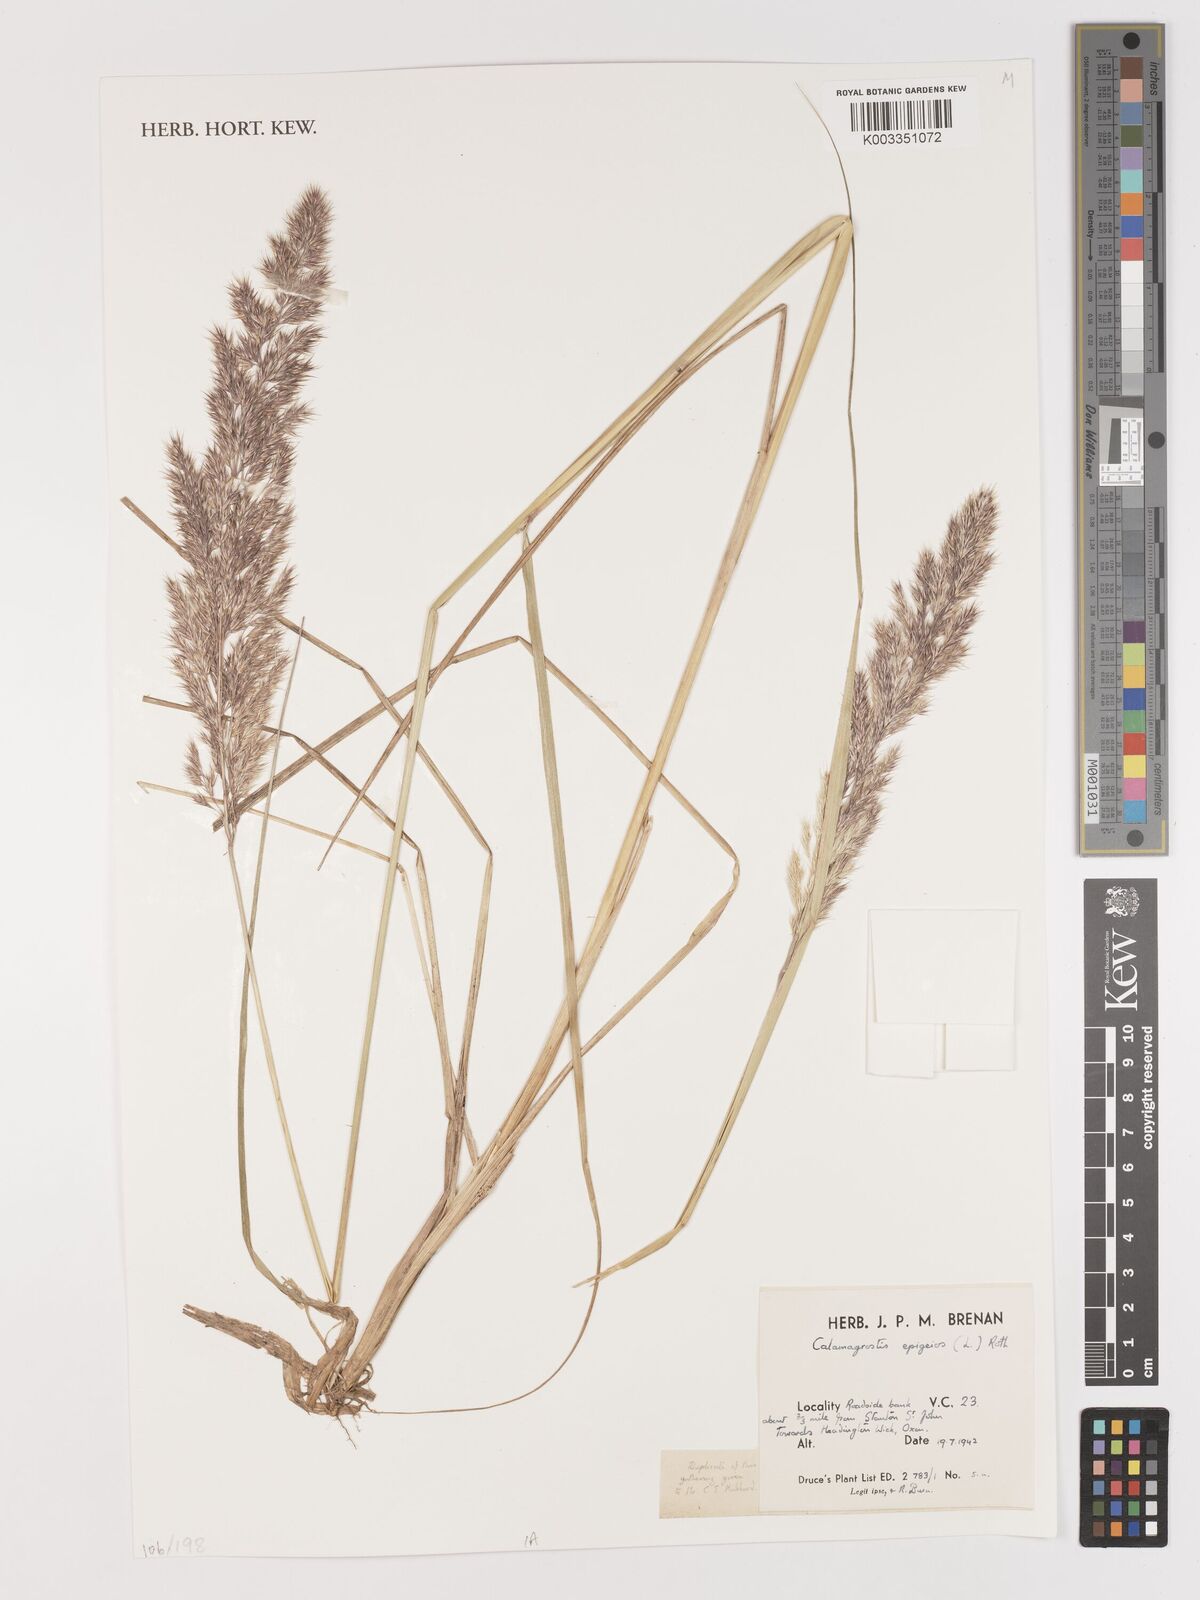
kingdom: Plantae
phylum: Tracheophyta
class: Liliopsida
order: Poales
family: Poaceae
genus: Calamagrostis
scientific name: Calamagrostis epigejos
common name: Wood small-reed
